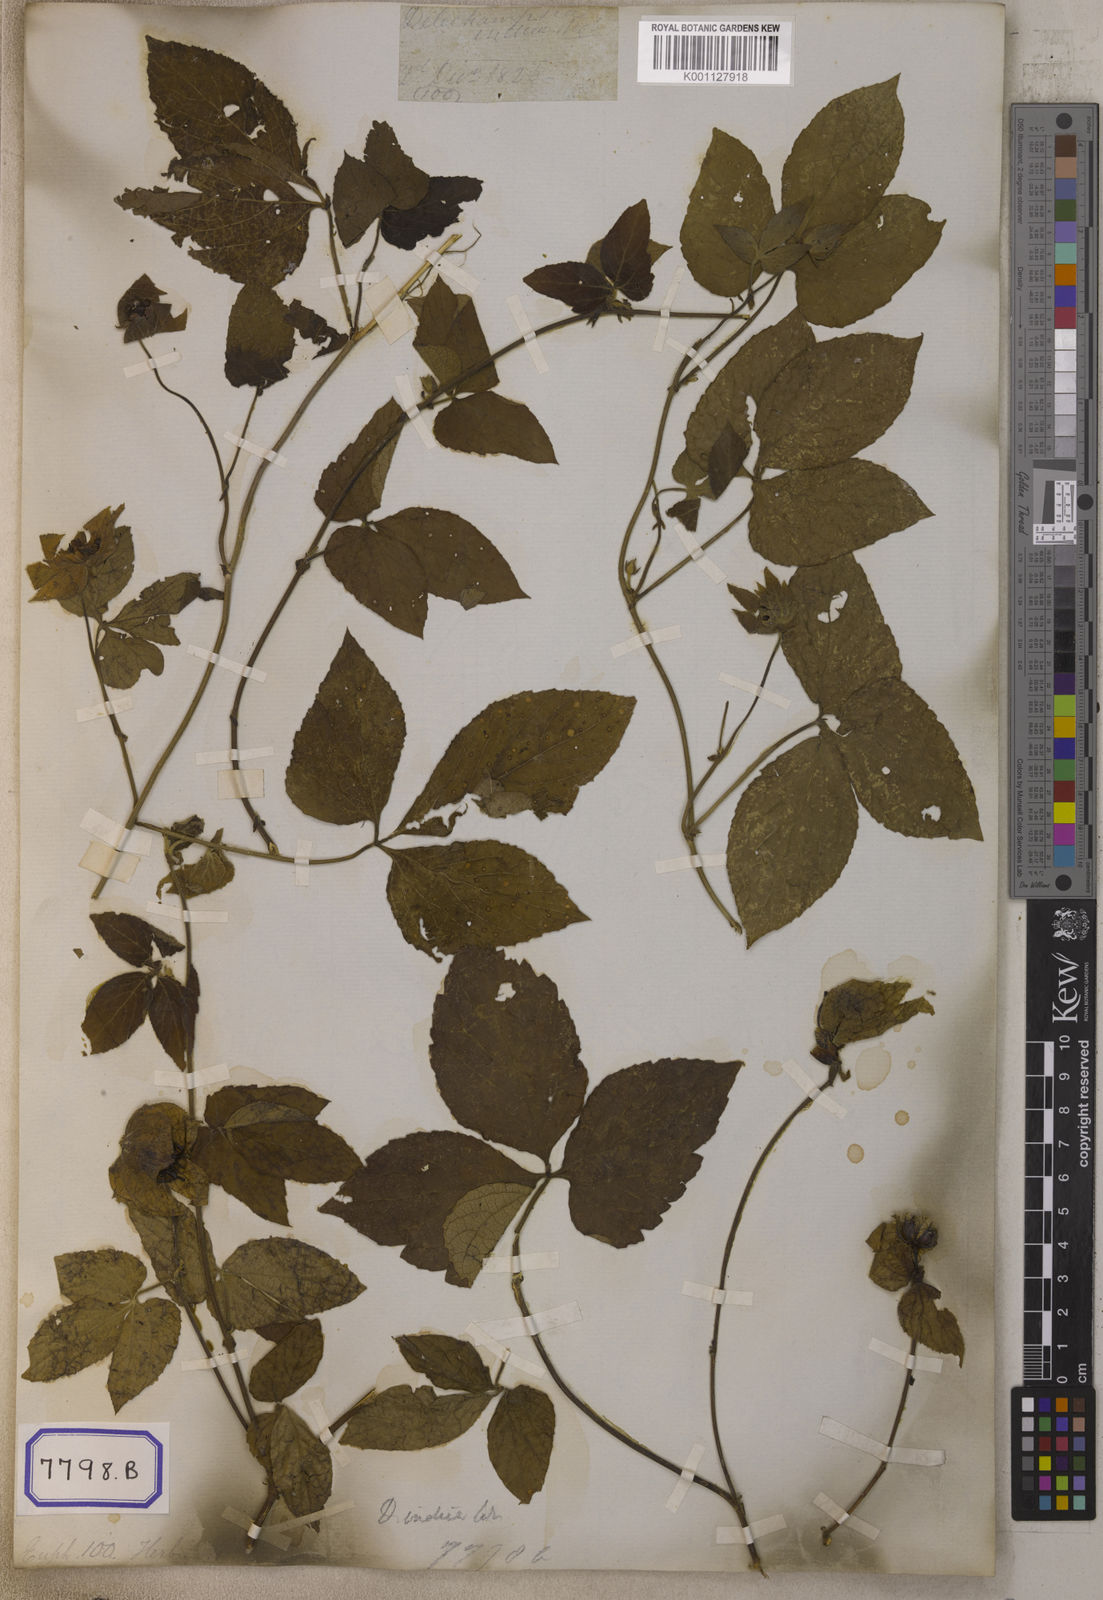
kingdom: Plantae
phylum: Tracheophyta
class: Magnoliopsida
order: Malpighiales
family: Euphorbiaceae
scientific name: Euphorbiaceae
